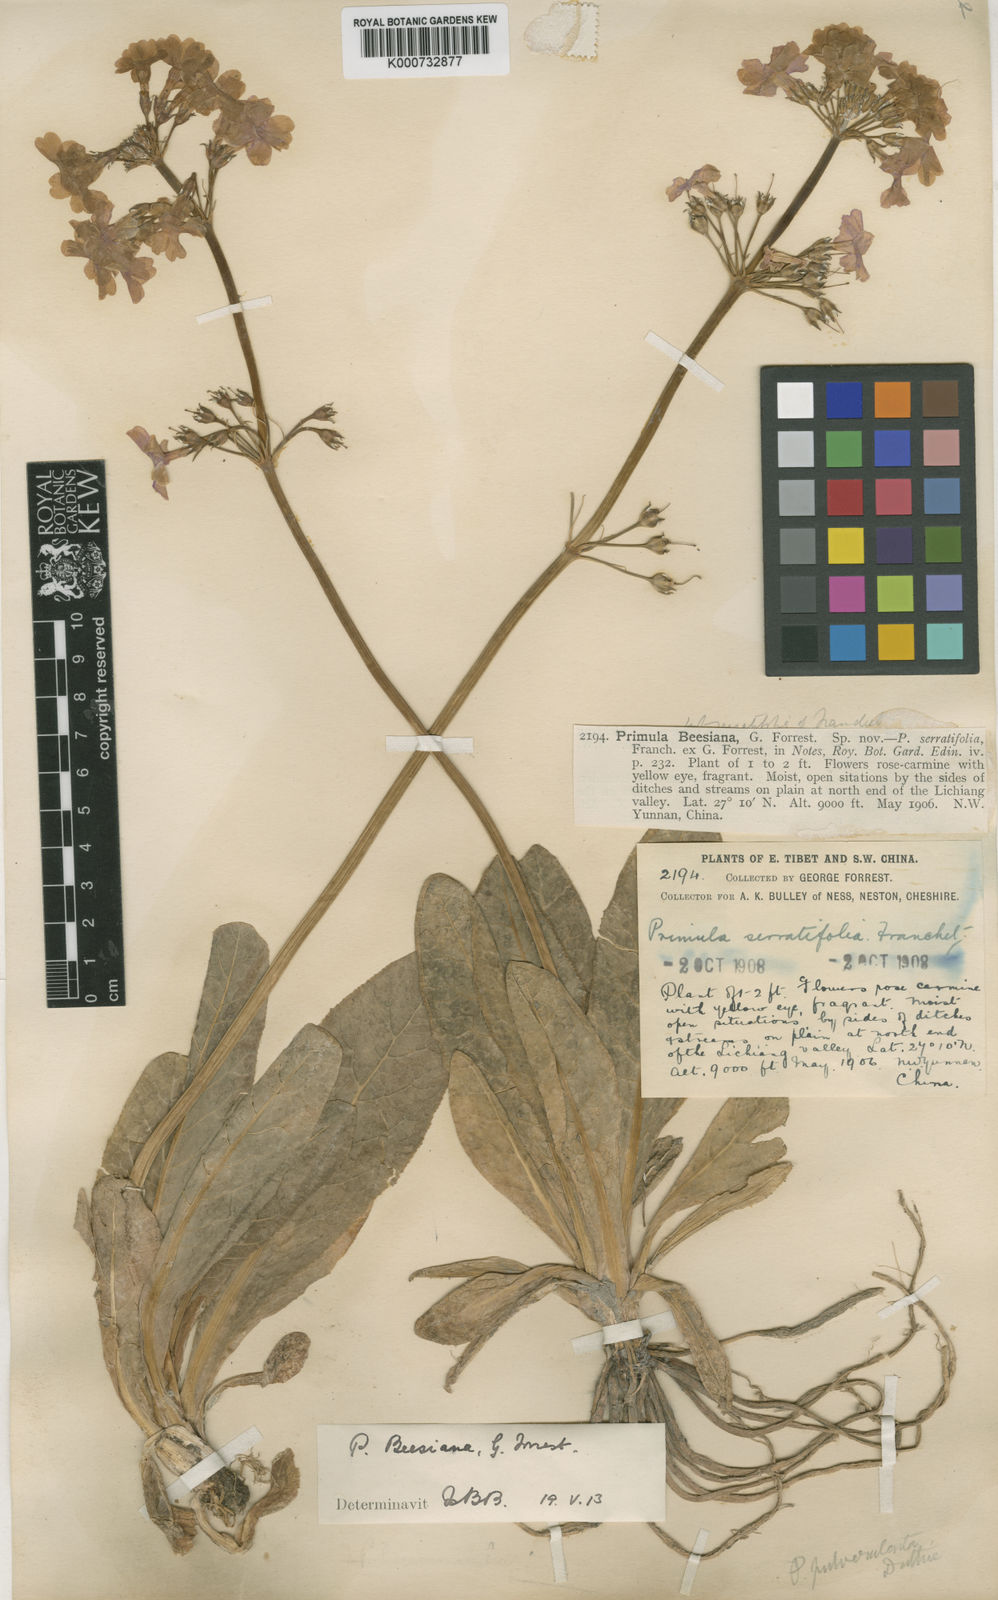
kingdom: Plantae
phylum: Tracheophyta
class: Magnoliopsida
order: Ericales
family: Primulaceae
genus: Primula
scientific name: Primula bulleyana
